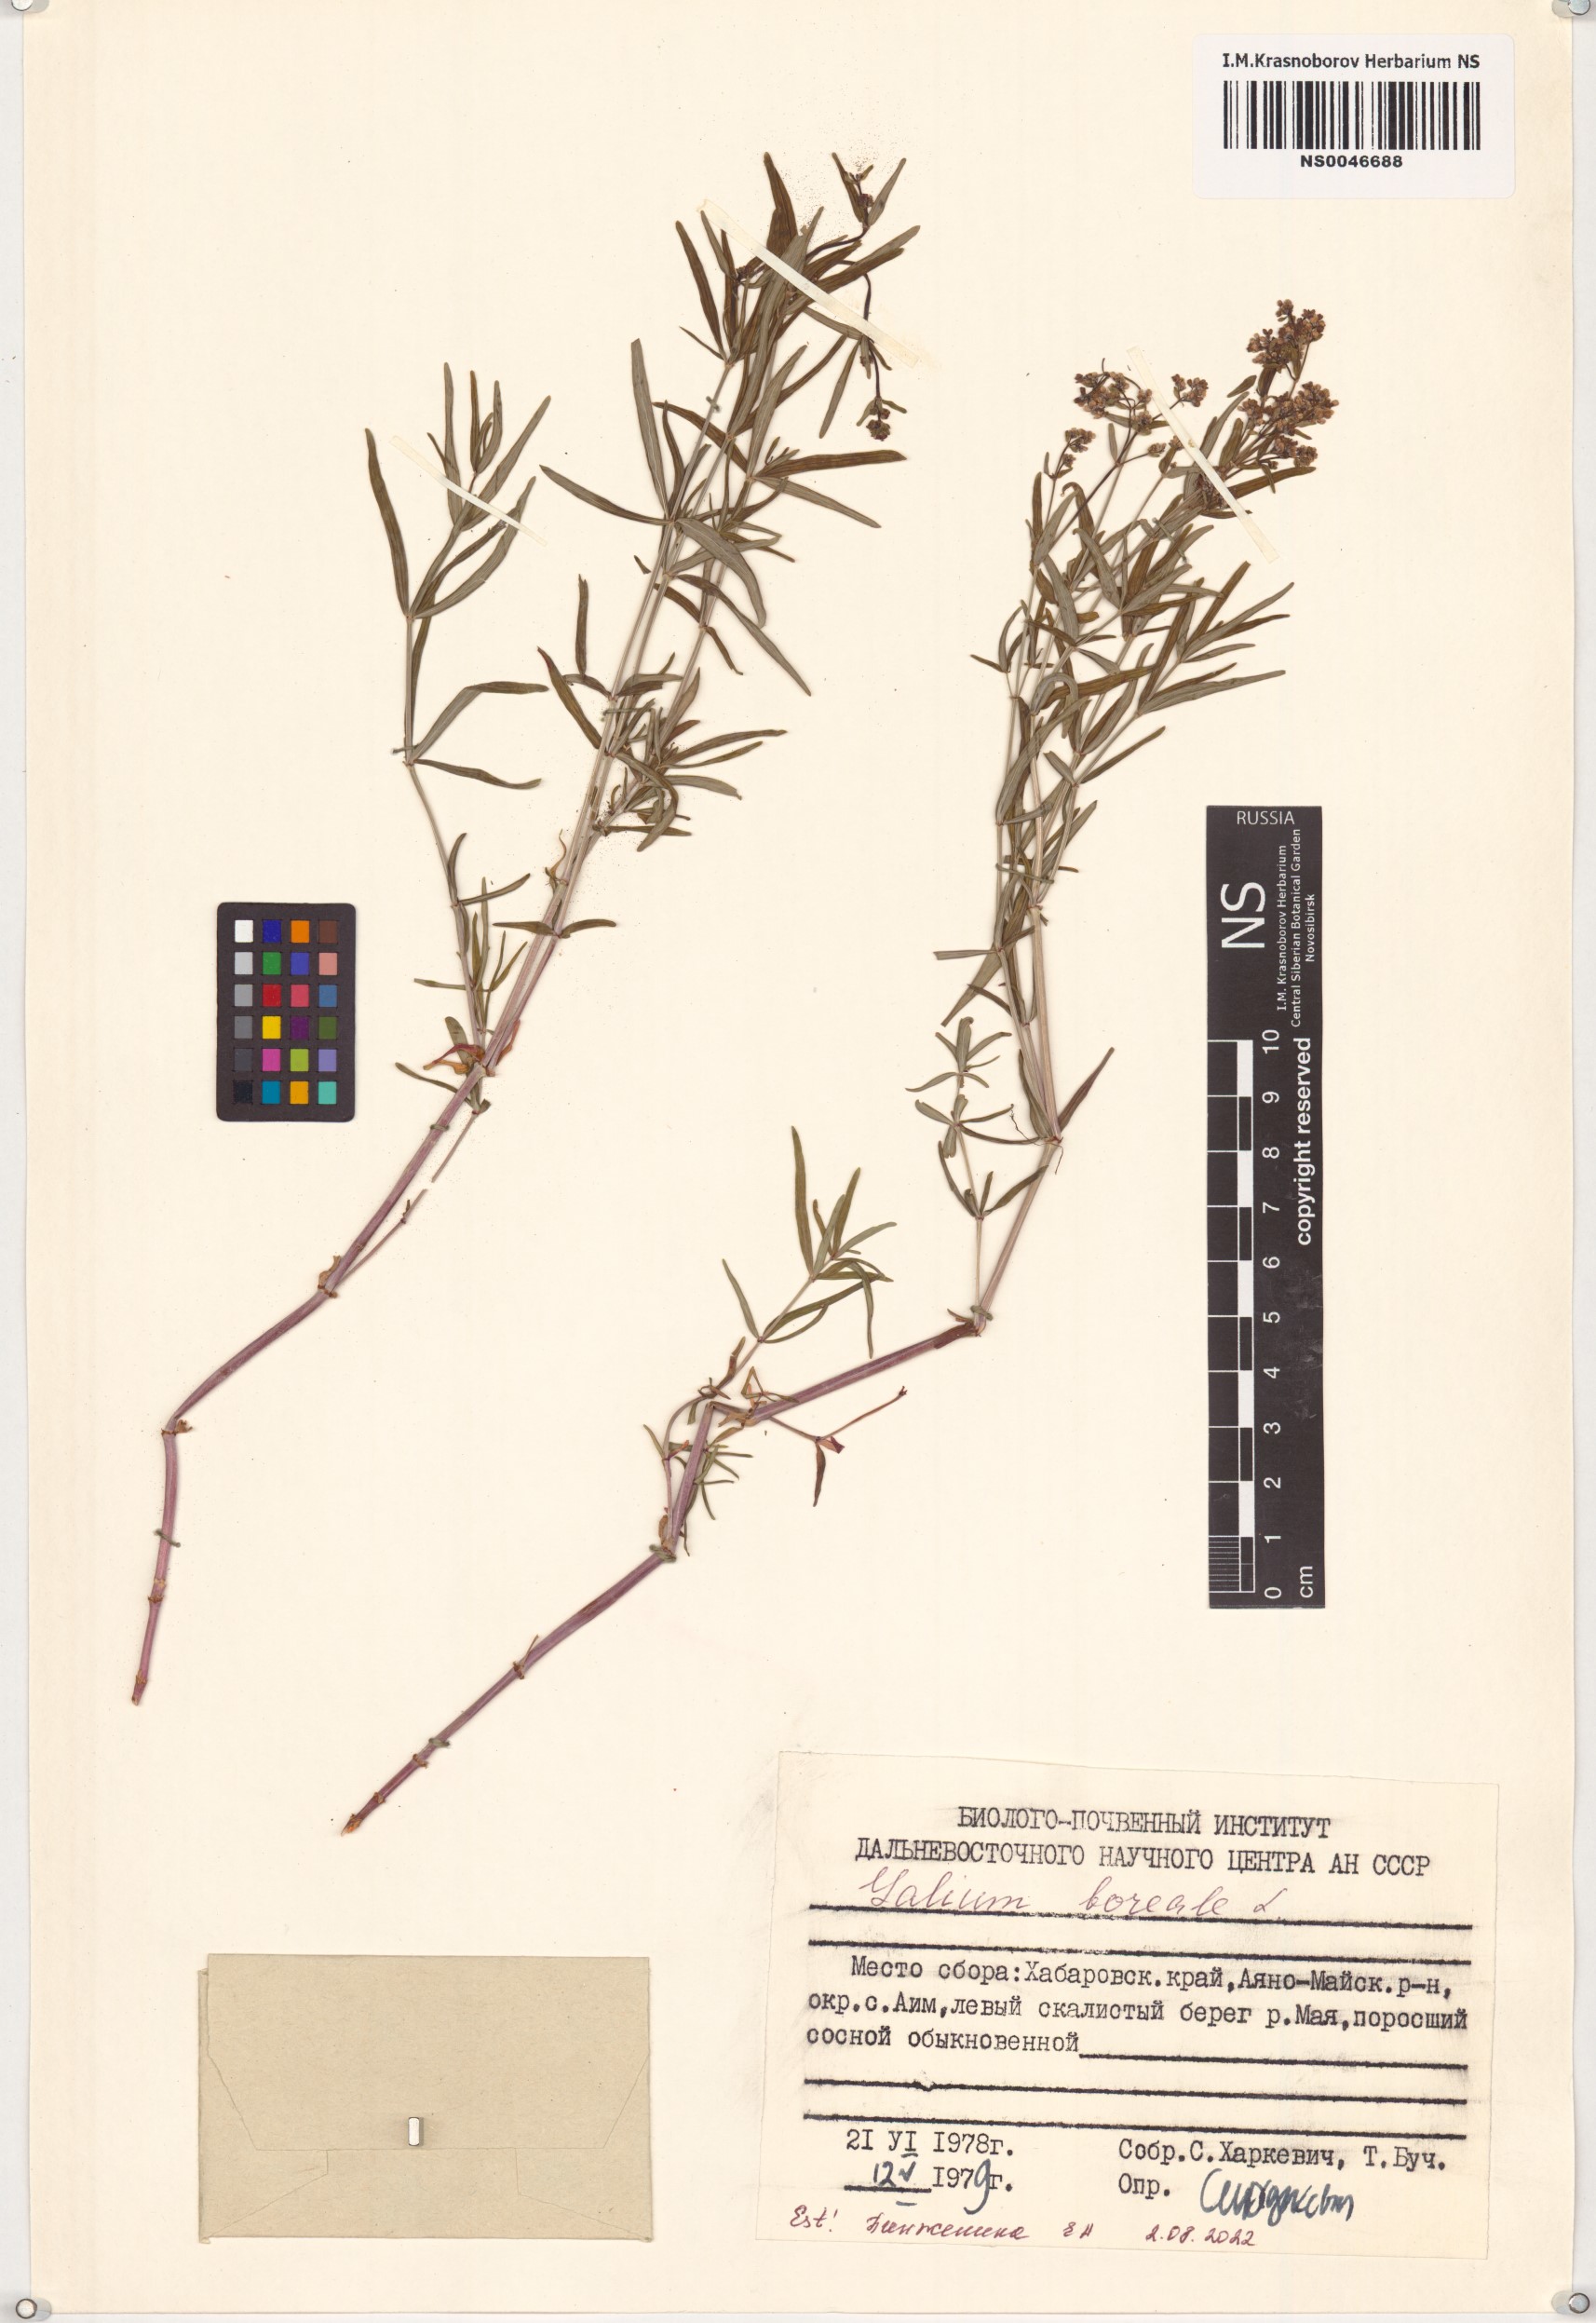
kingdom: Plantae
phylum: Tracheophyta
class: Magnoliopsida
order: Gentianales
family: Rubiaceae
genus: Galium
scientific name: Galium boreale
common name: Northern bedstraw
